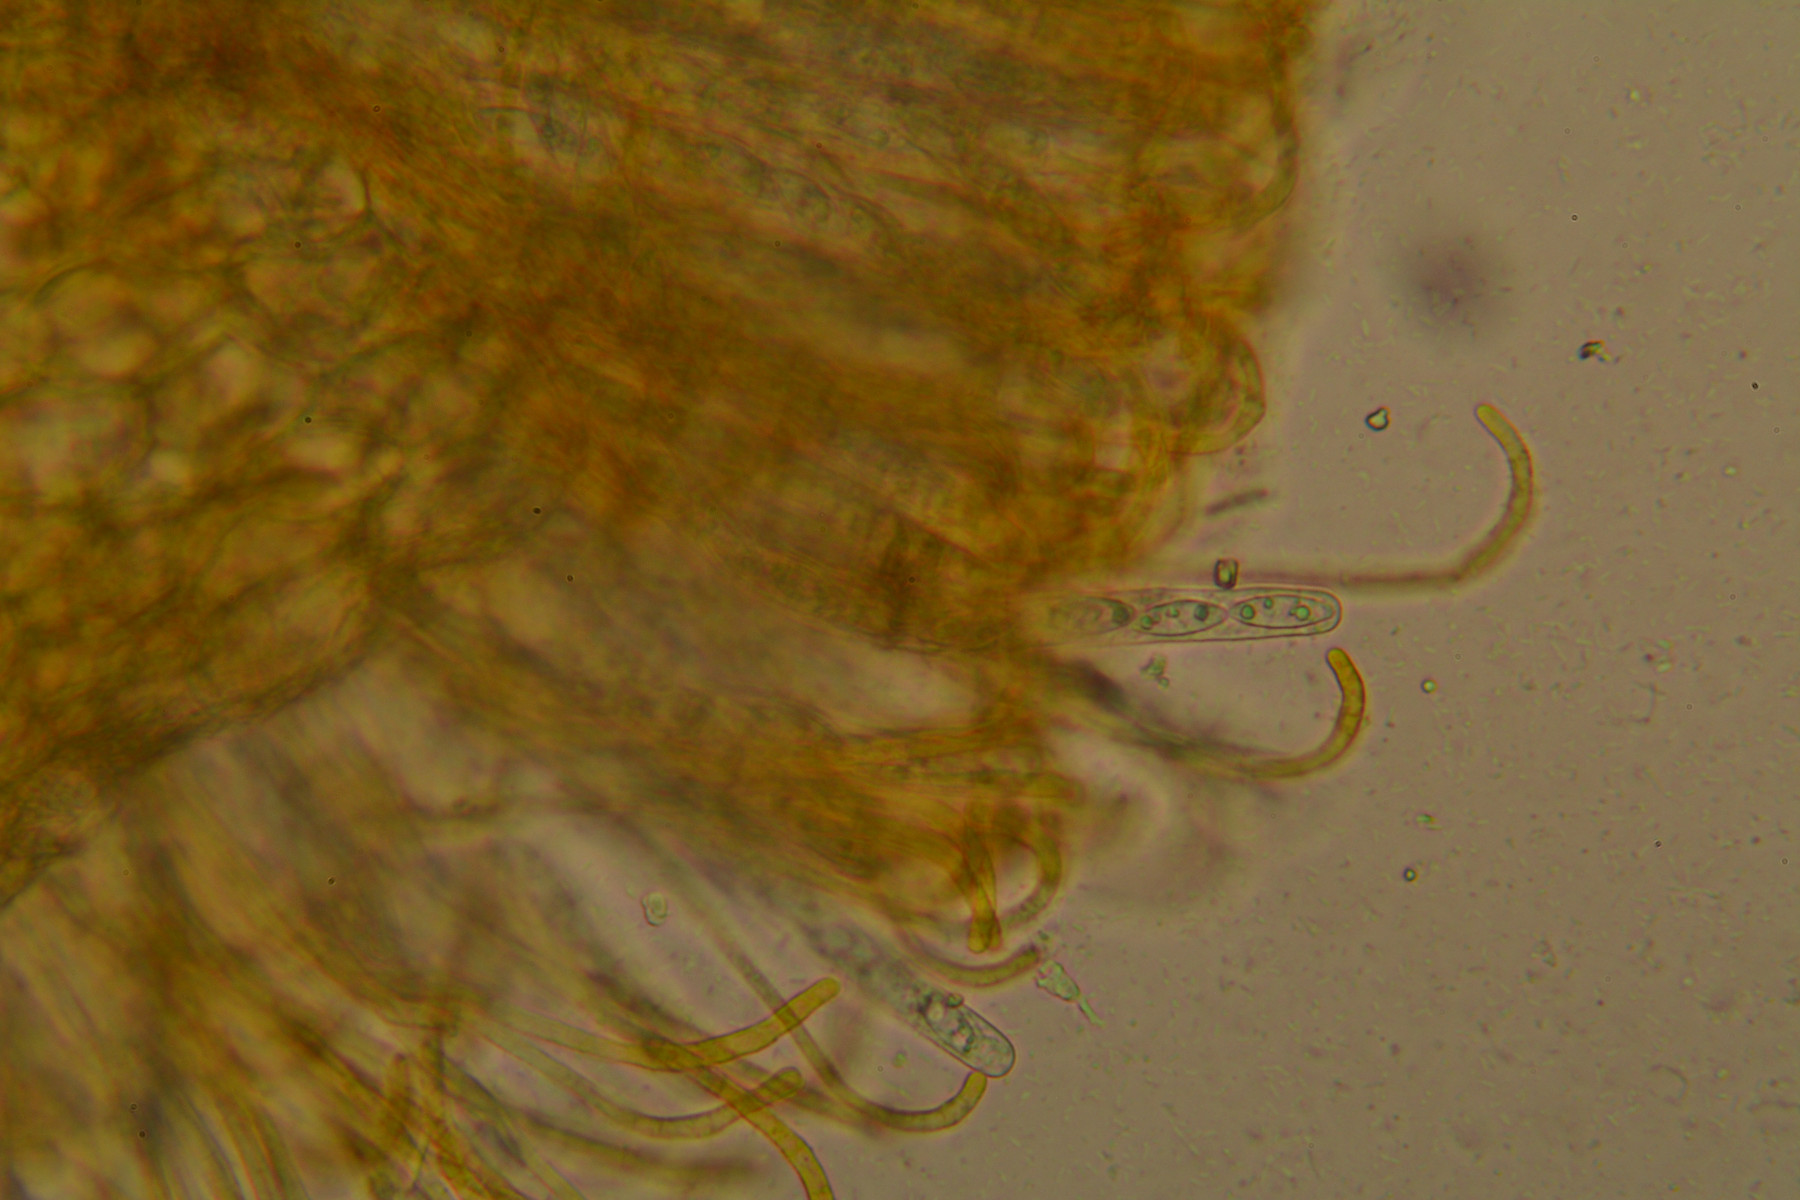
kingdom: Fungi
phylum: Ascomycota
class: Pezizomycetes
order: Pezizales
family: Pyronemataceae
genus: Byssonectria
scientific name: Byssonectria terrestris
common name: hjortebæger
